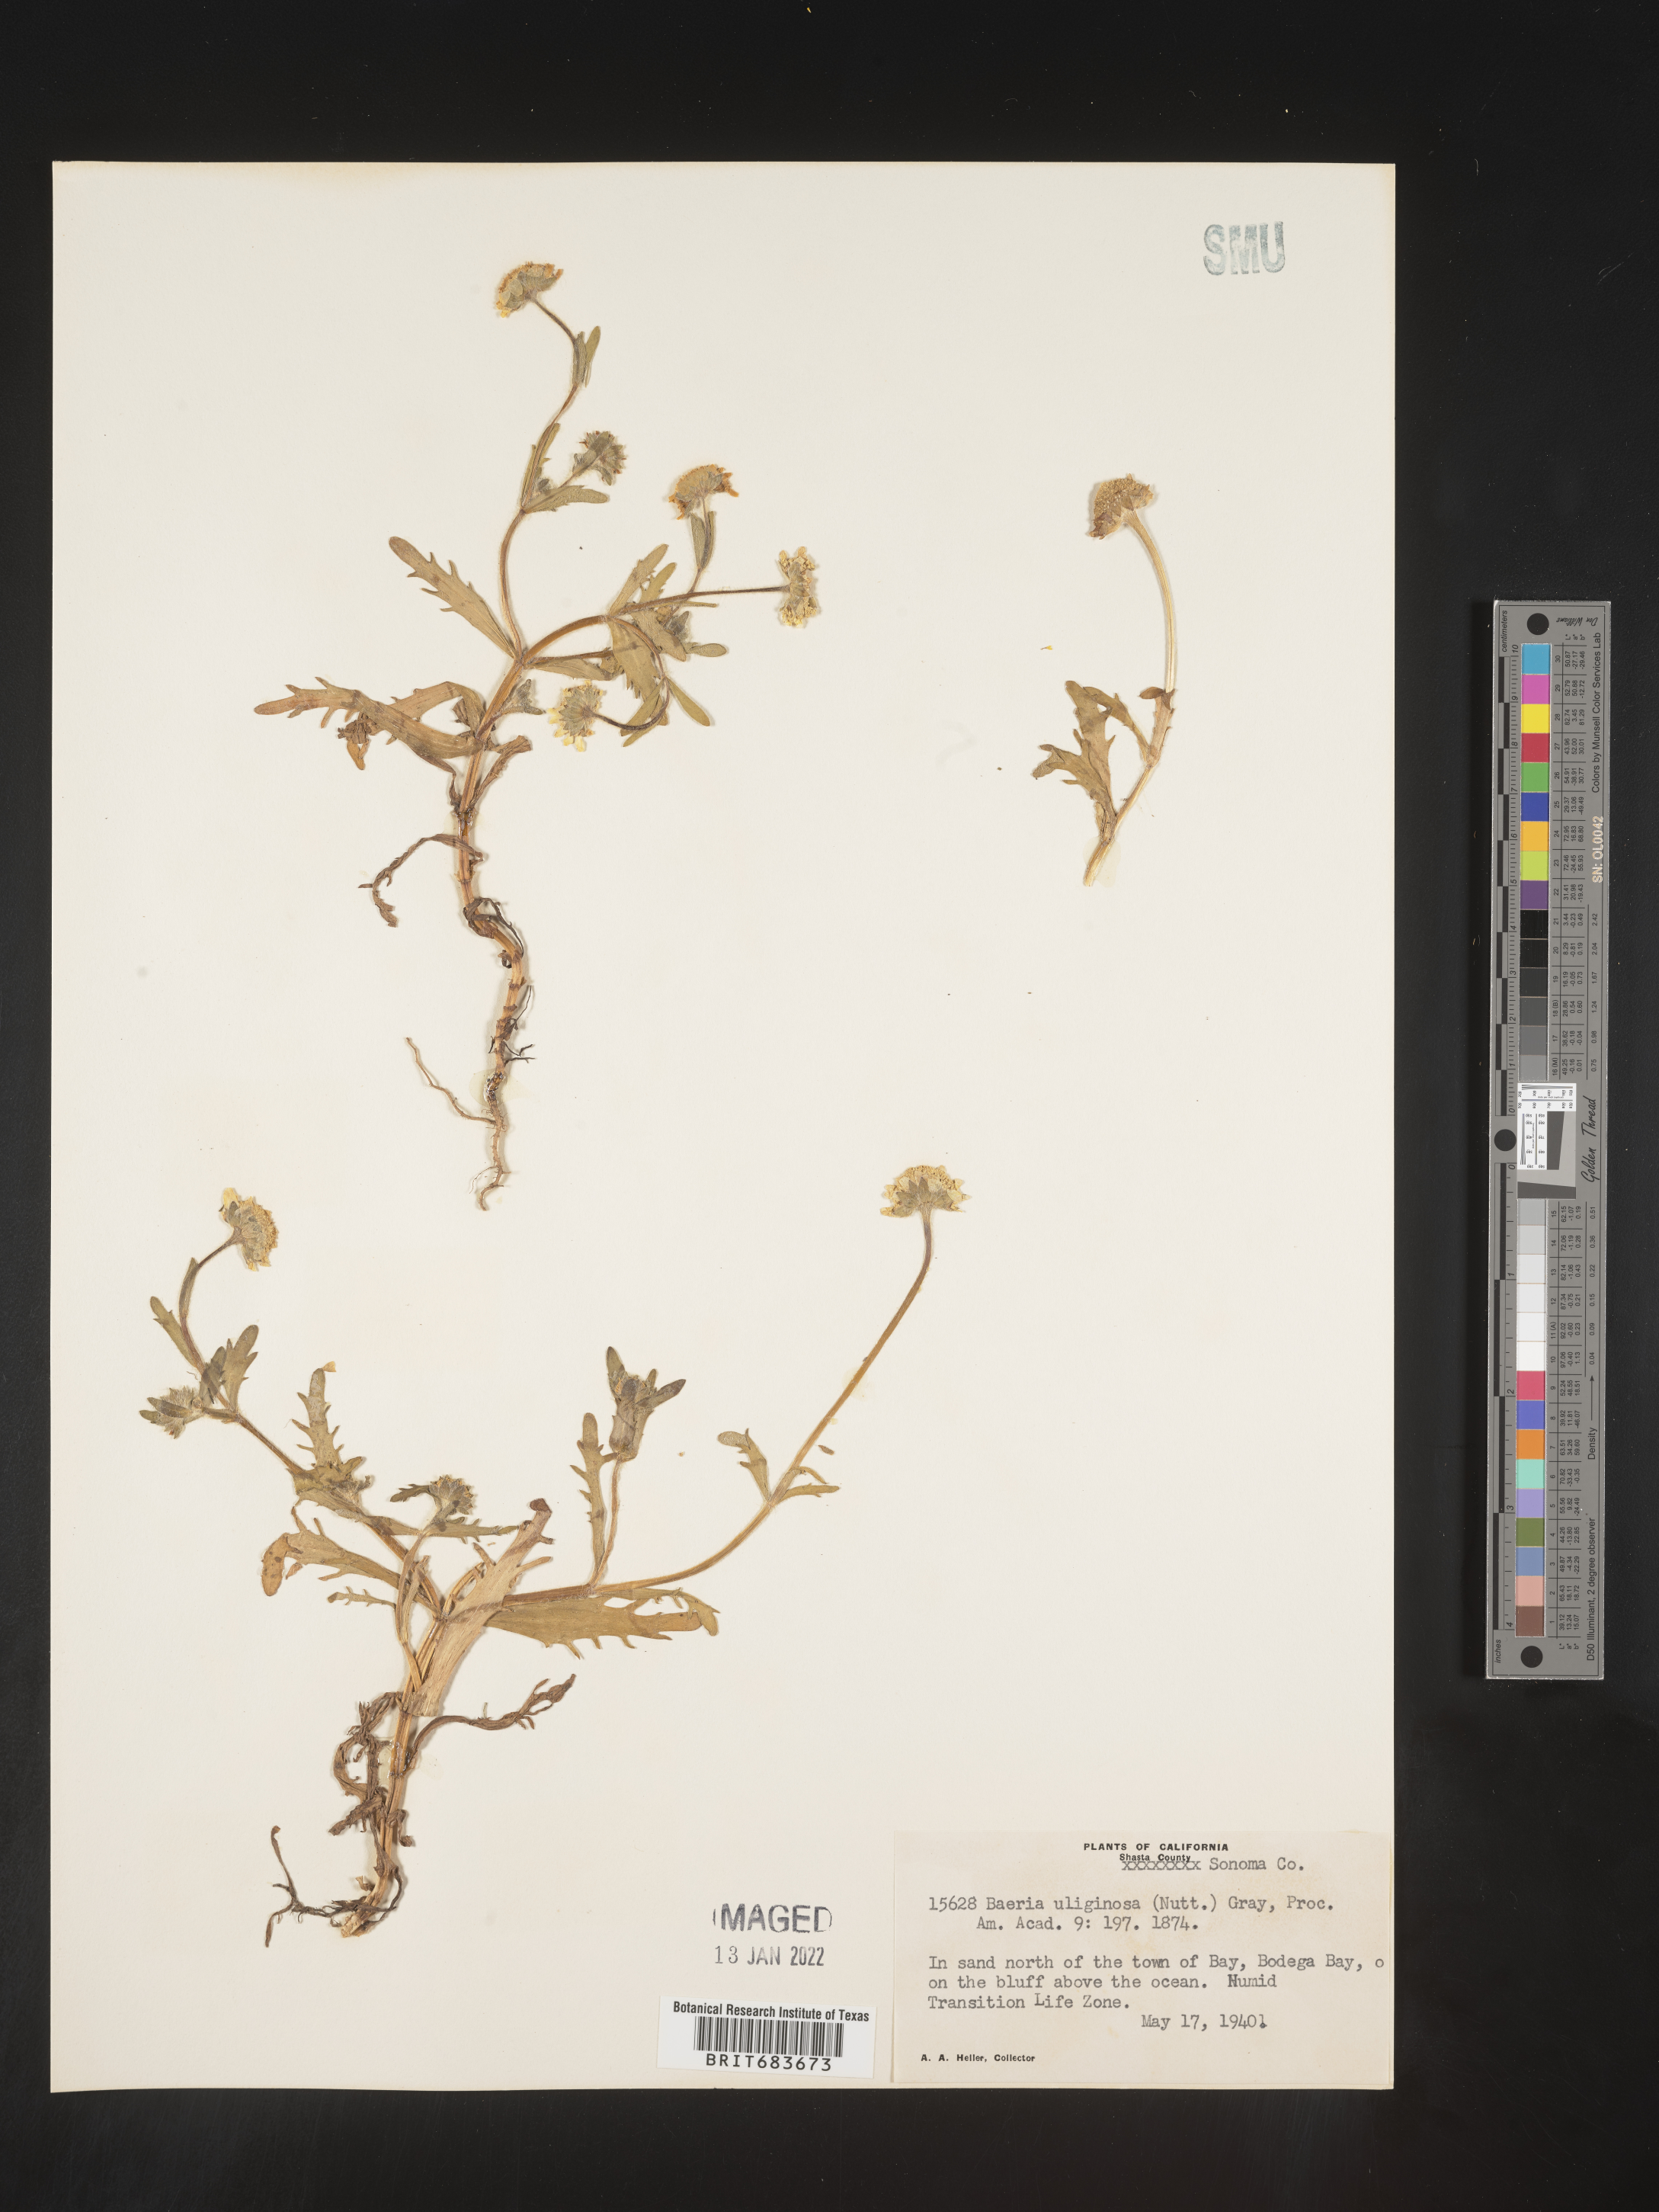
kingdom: Plantae
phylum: Tracheophyta
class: Magnoliopsida
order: Asterales
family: Asteraceae
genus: Lasthenia
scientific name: Lasthenia
